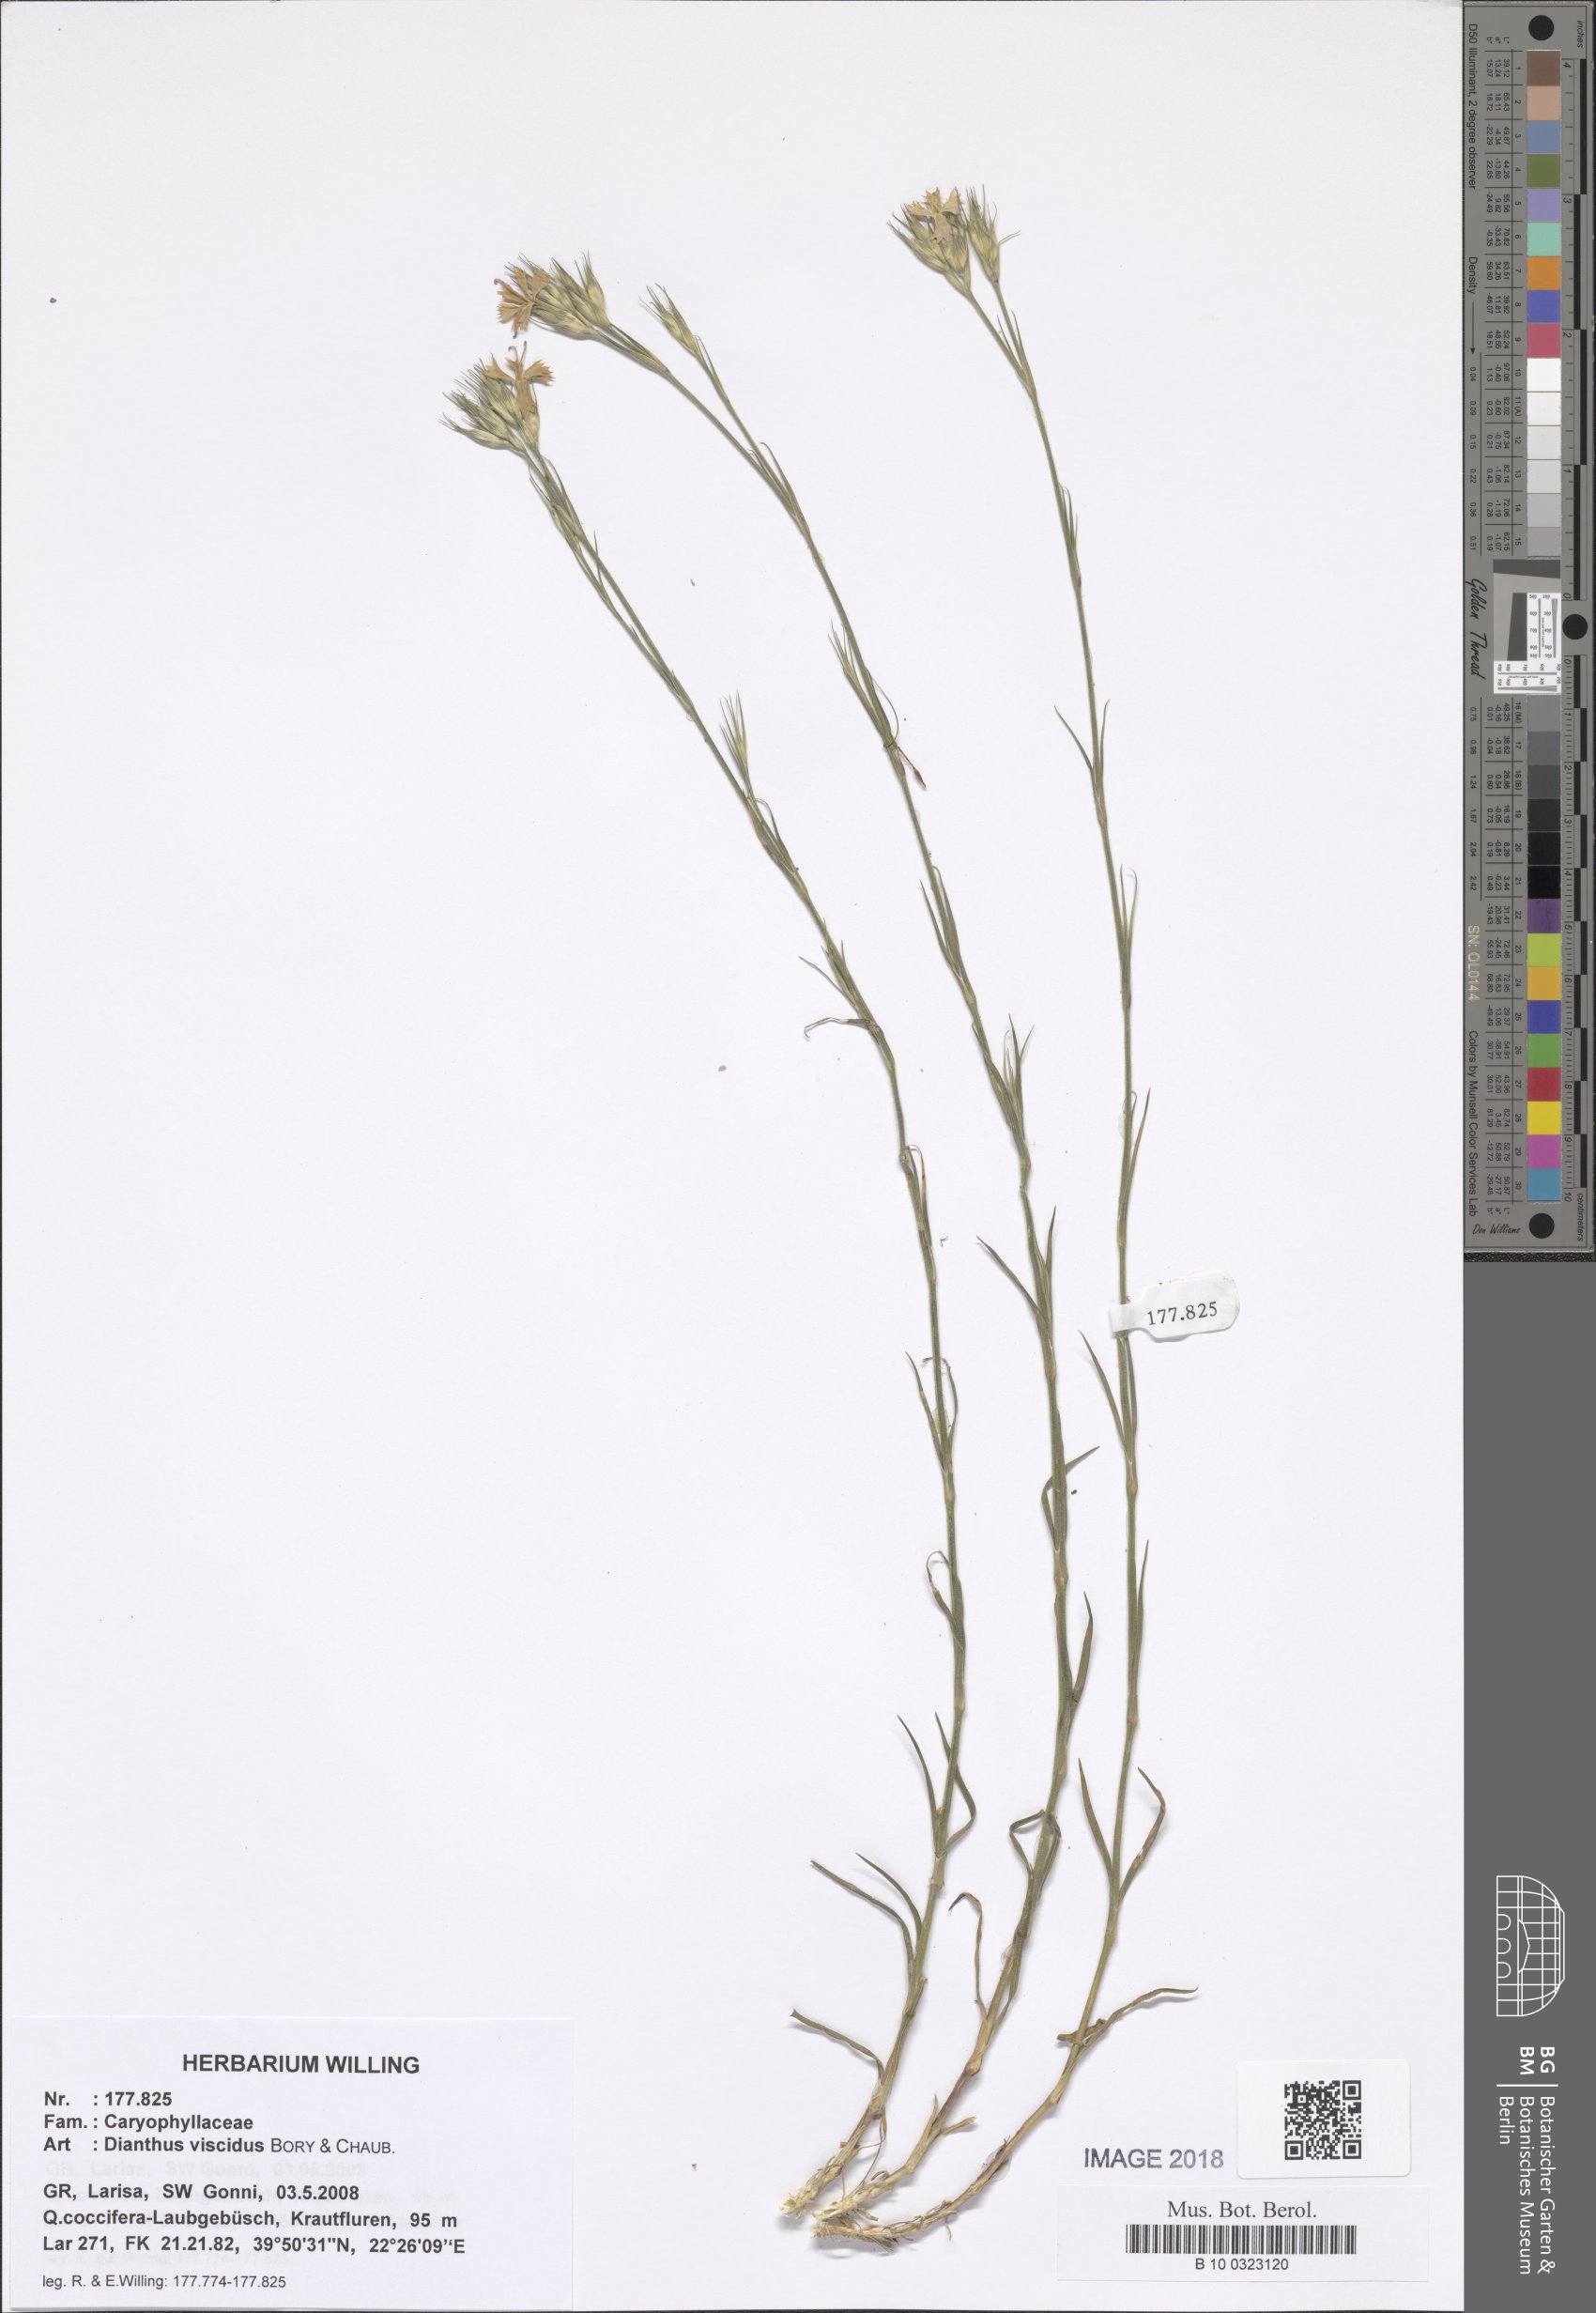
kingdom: Plantae
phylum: Tracheophyta
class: Magnoliopsida
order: Caryophyllales
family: Caryophyllaceae
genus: Dianthus
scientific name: Dianthus viscidus
